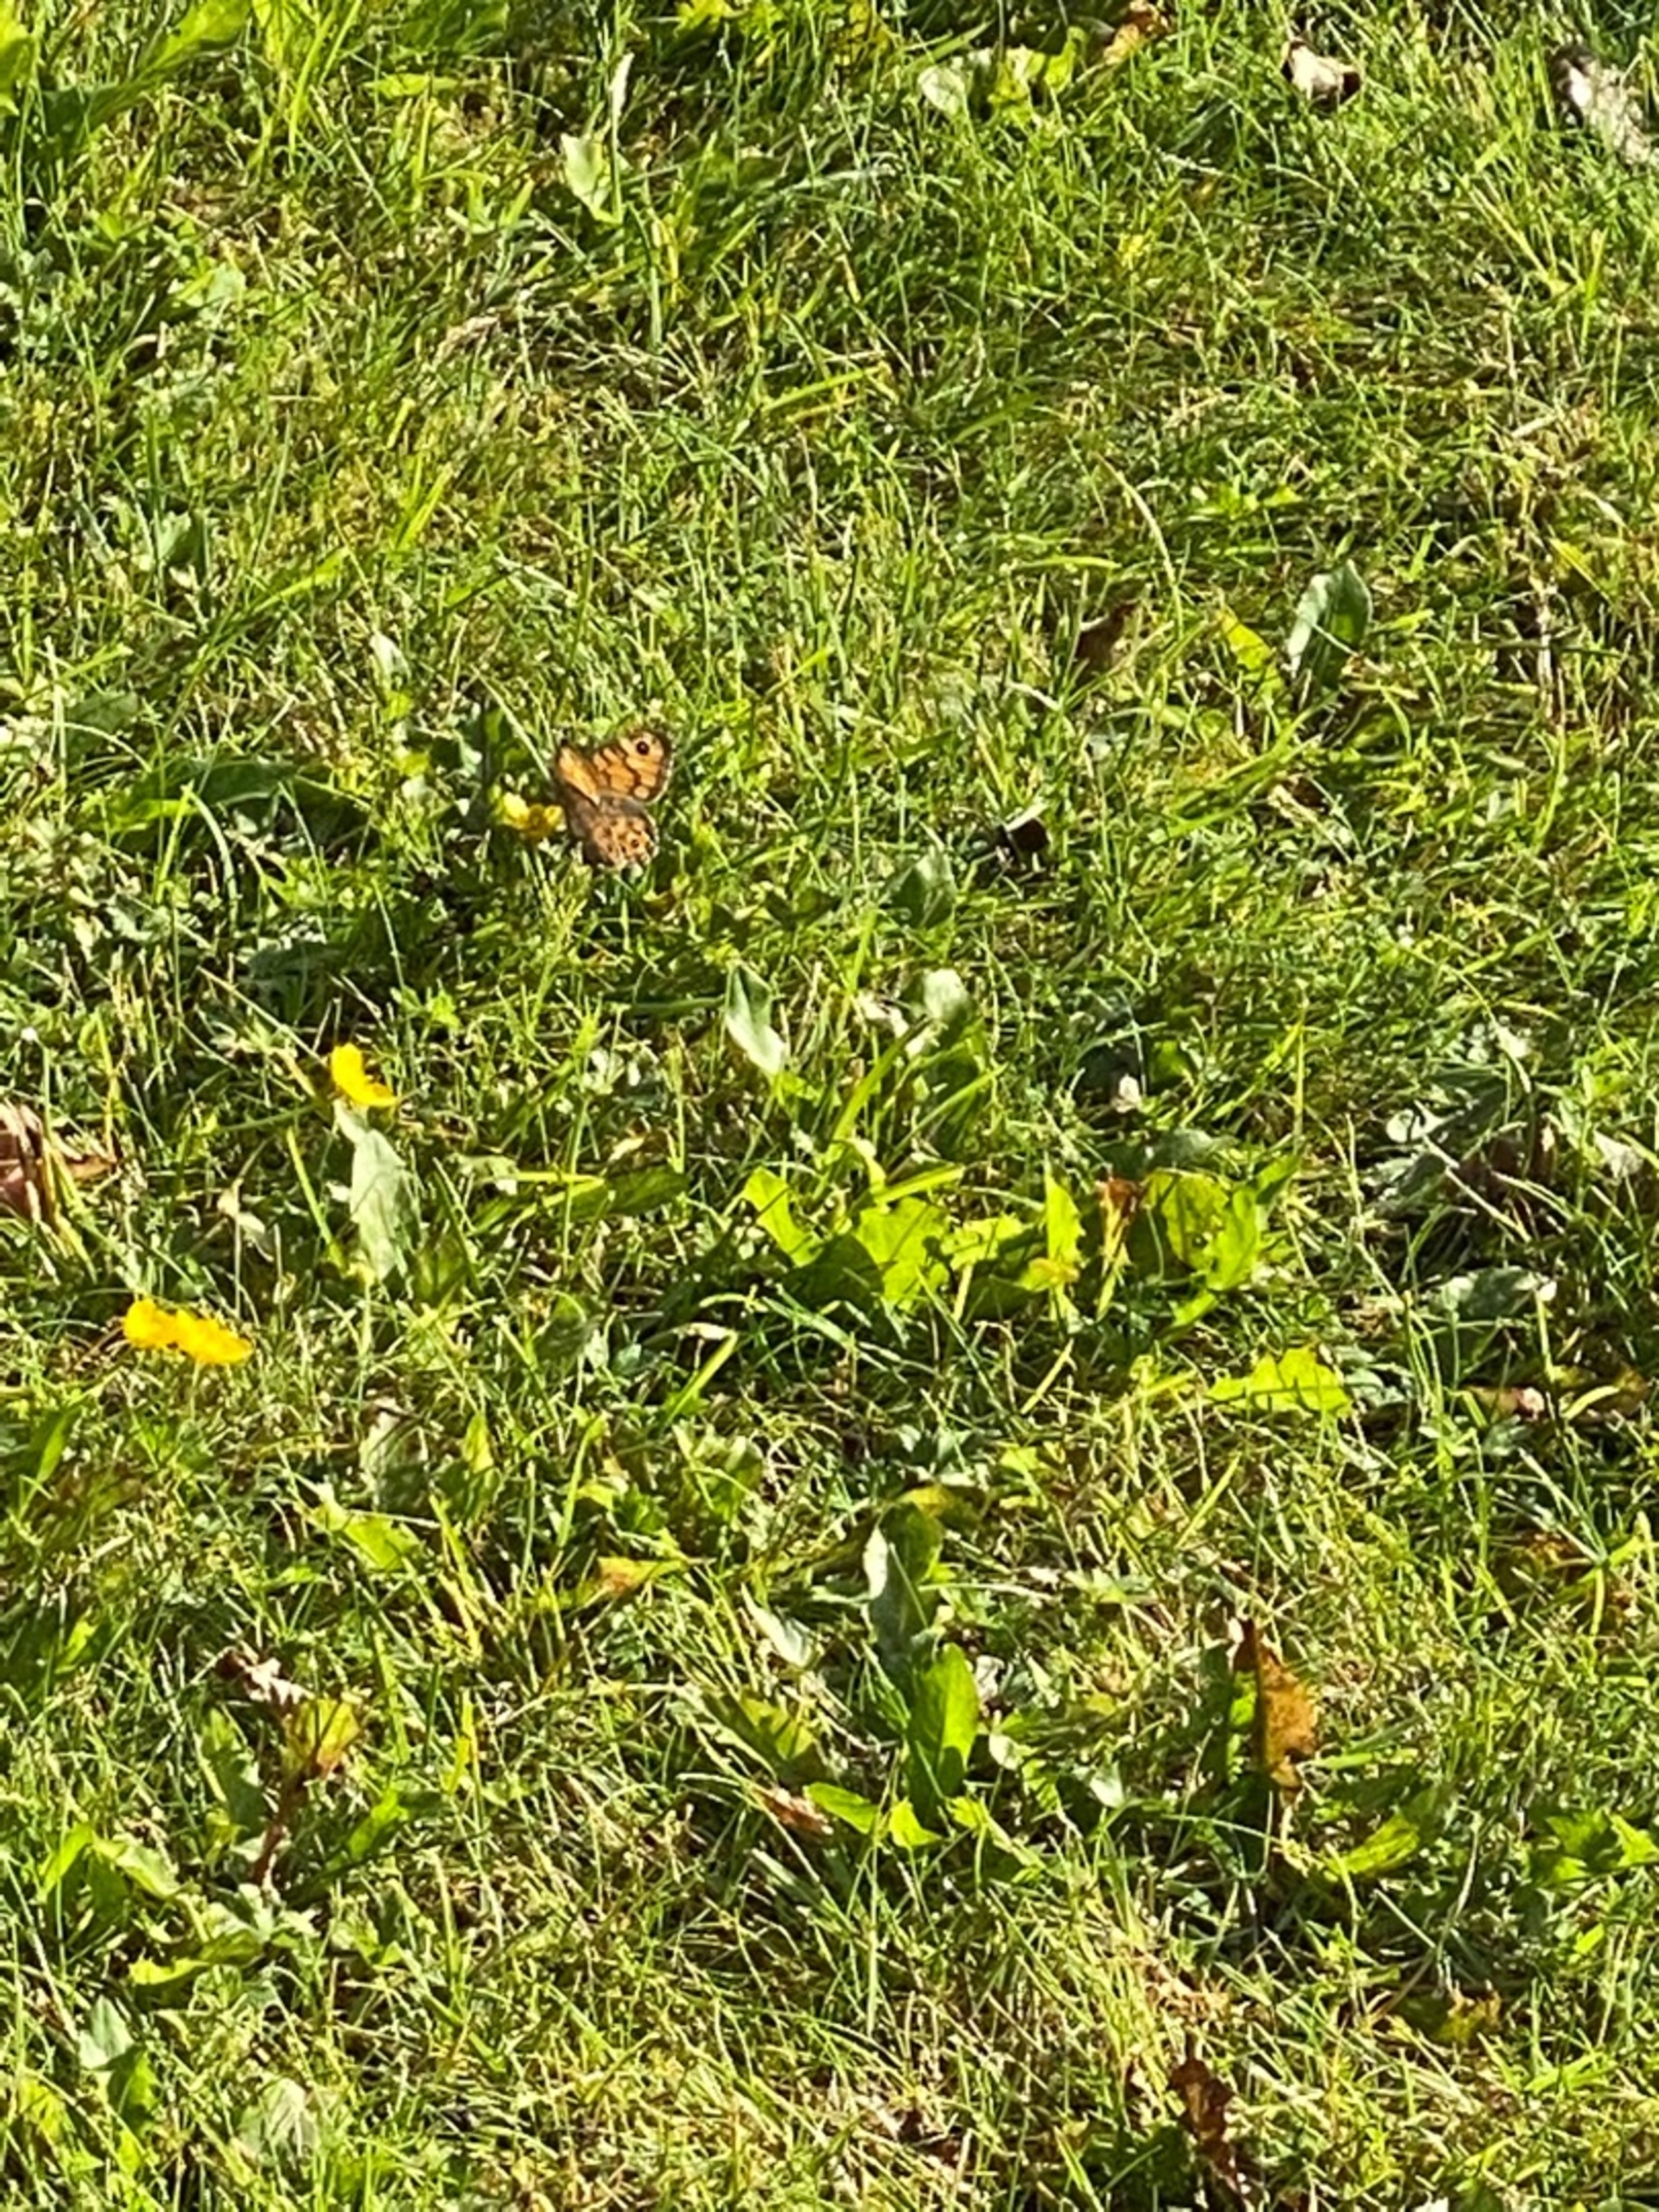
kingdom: Animalia
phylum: Arthropoda
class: Insecta
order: Lepidoptera
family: Nymphalidae
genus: Pararge
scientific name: Pararge Lasiommata megera
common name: Vejrandøje
